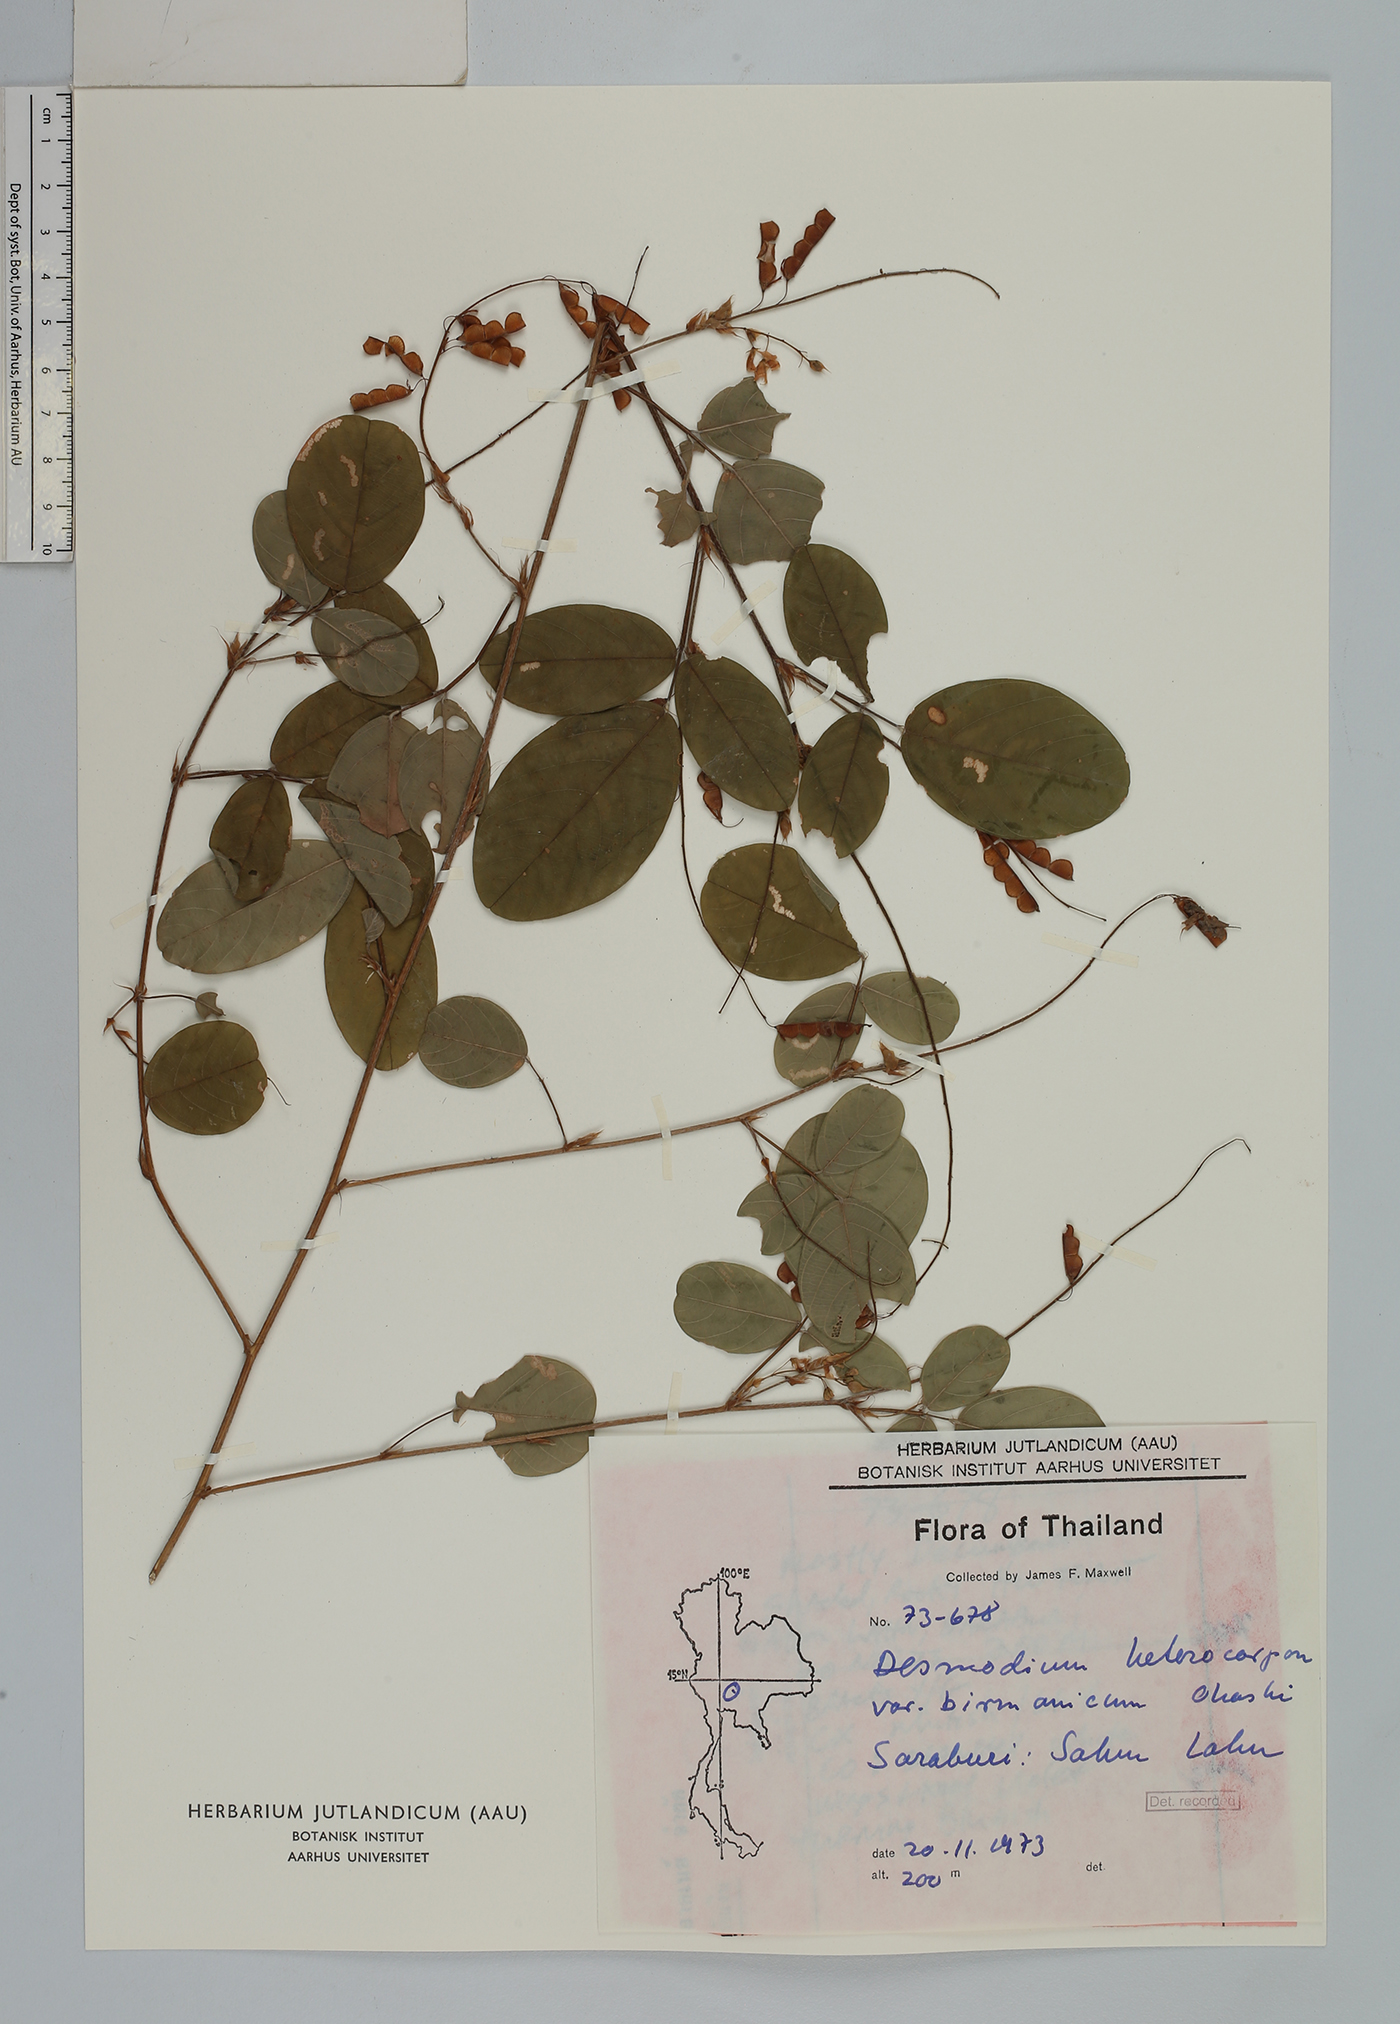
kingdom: Plantae
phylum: Tracheophyta
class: Magnoliopsida
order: Fabales
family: Fabaceae
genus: Grona
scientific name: Grona heterocarpos
